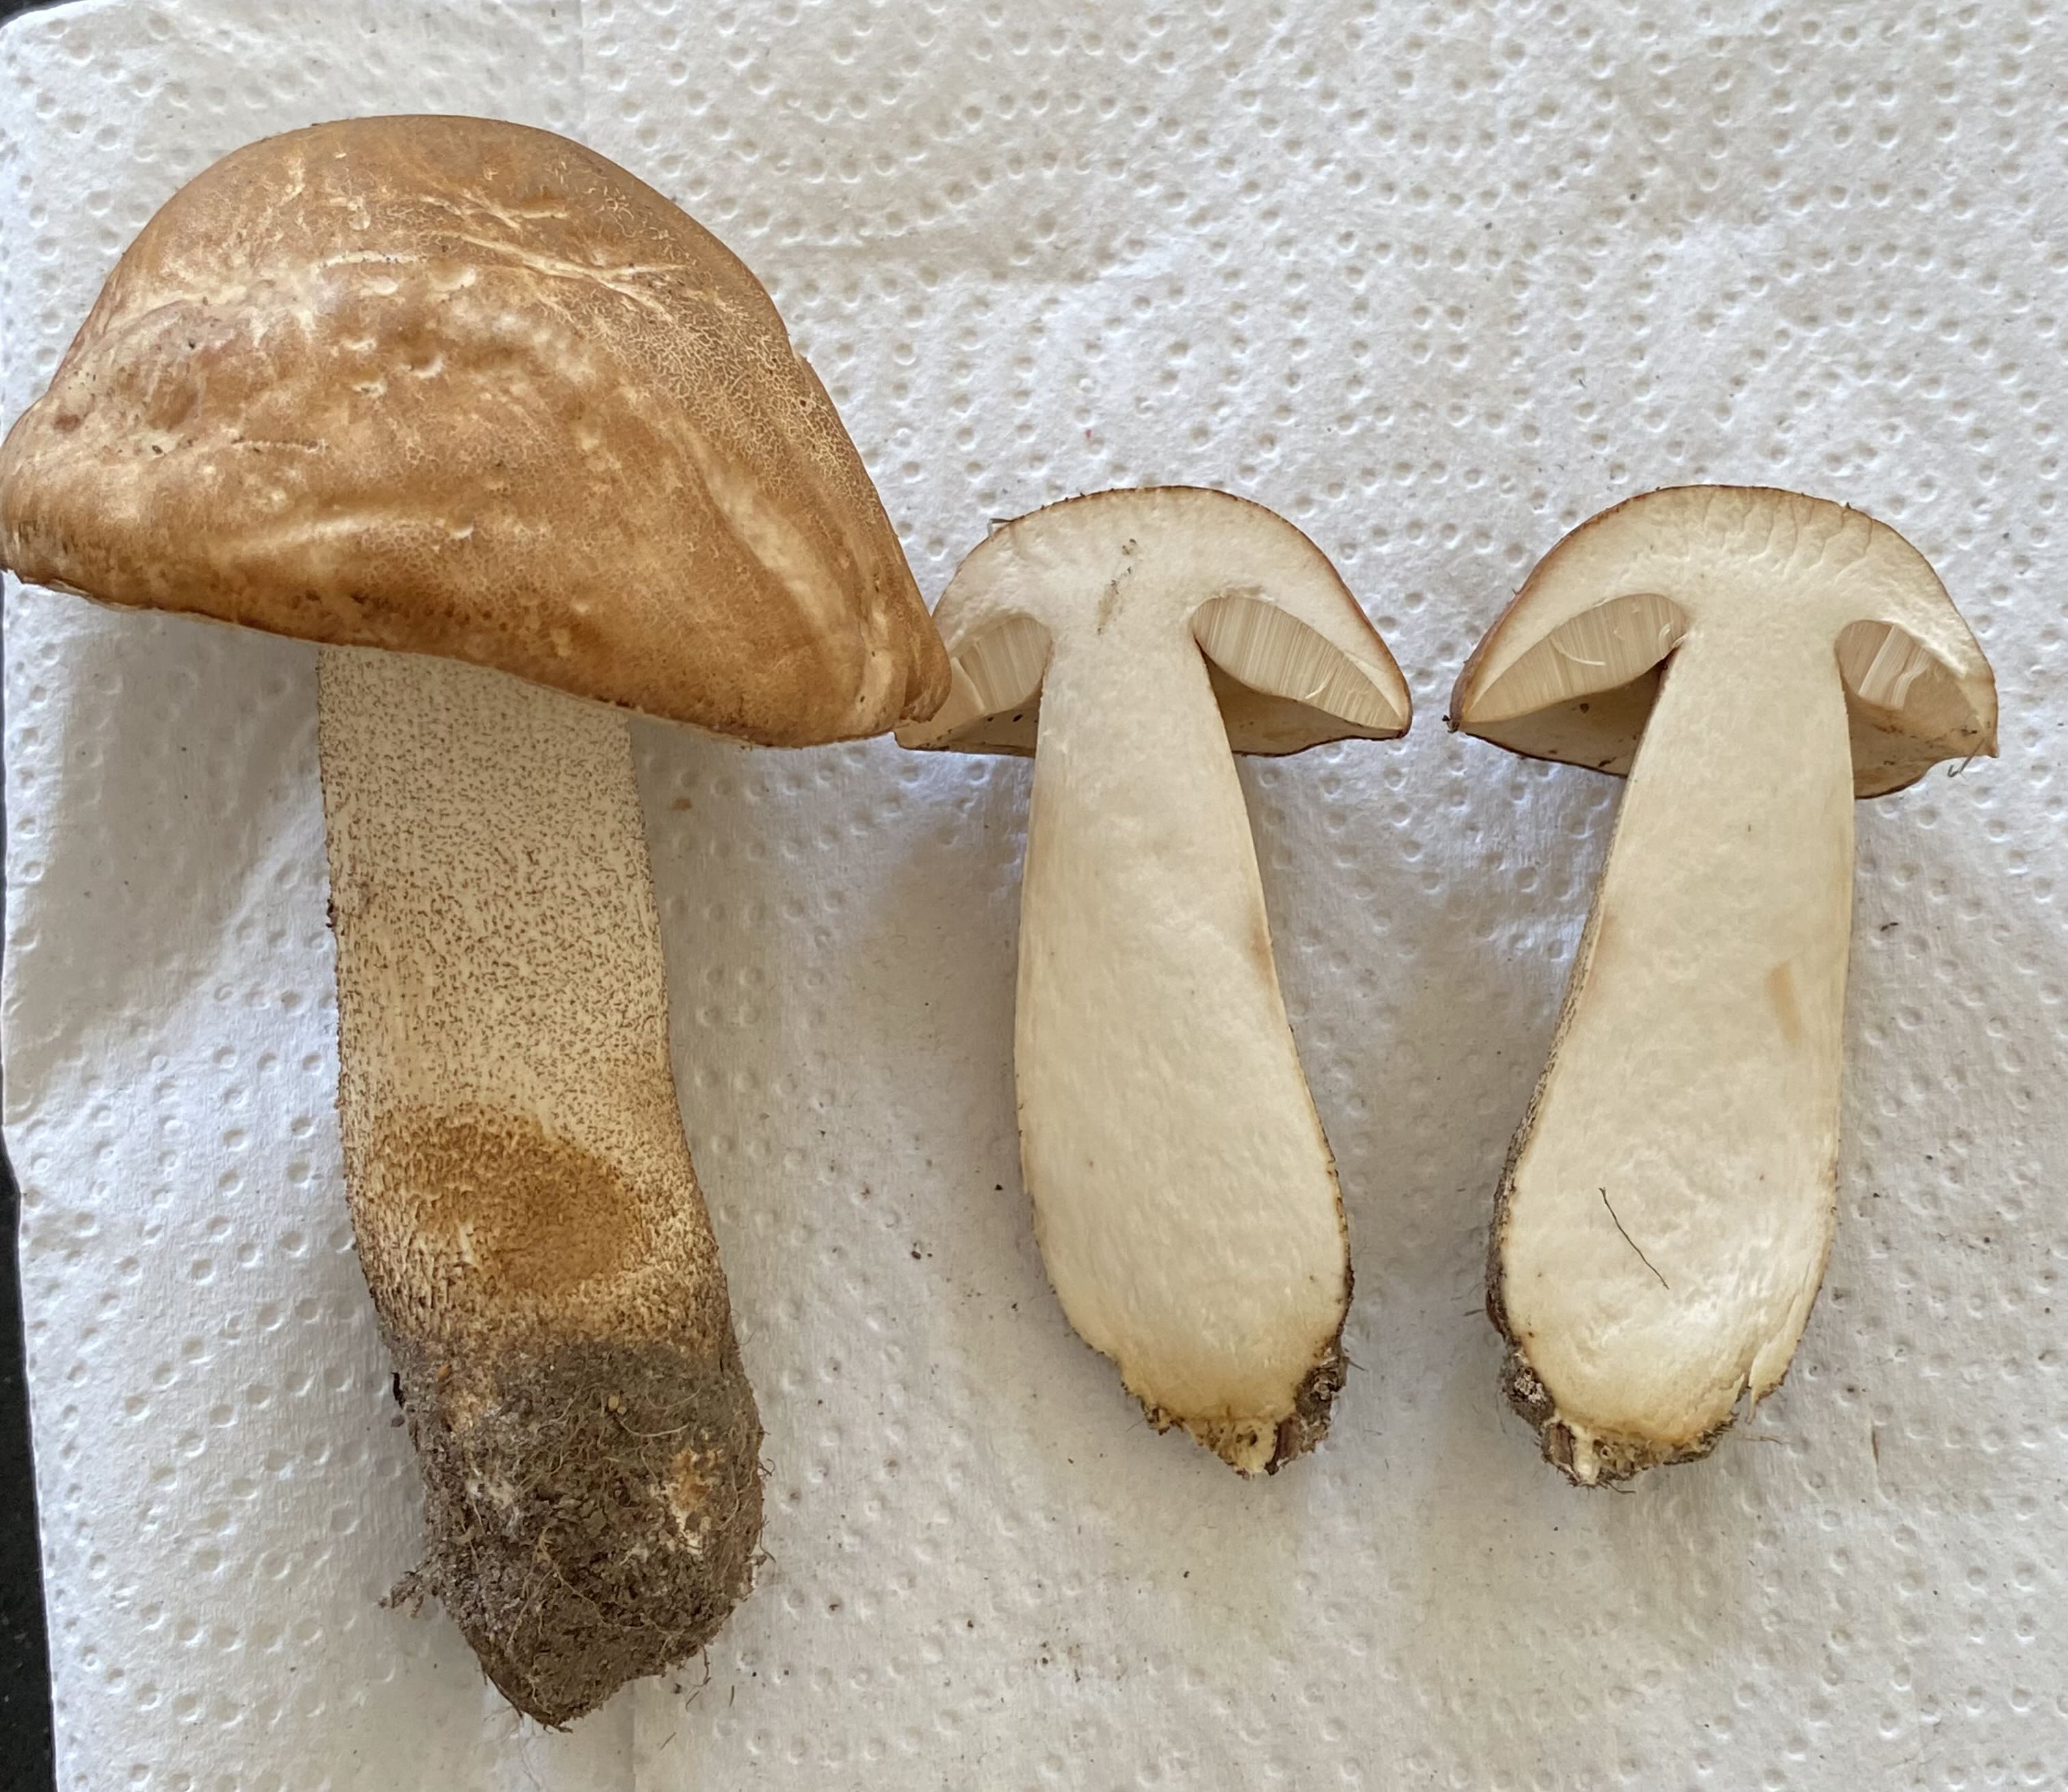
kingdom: Fungi
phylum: Basidiomycota
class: Agaricomycetes
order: Boletales
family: Boletaceae
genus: Leccinum
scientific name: Leccinum
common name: skælrørhat
